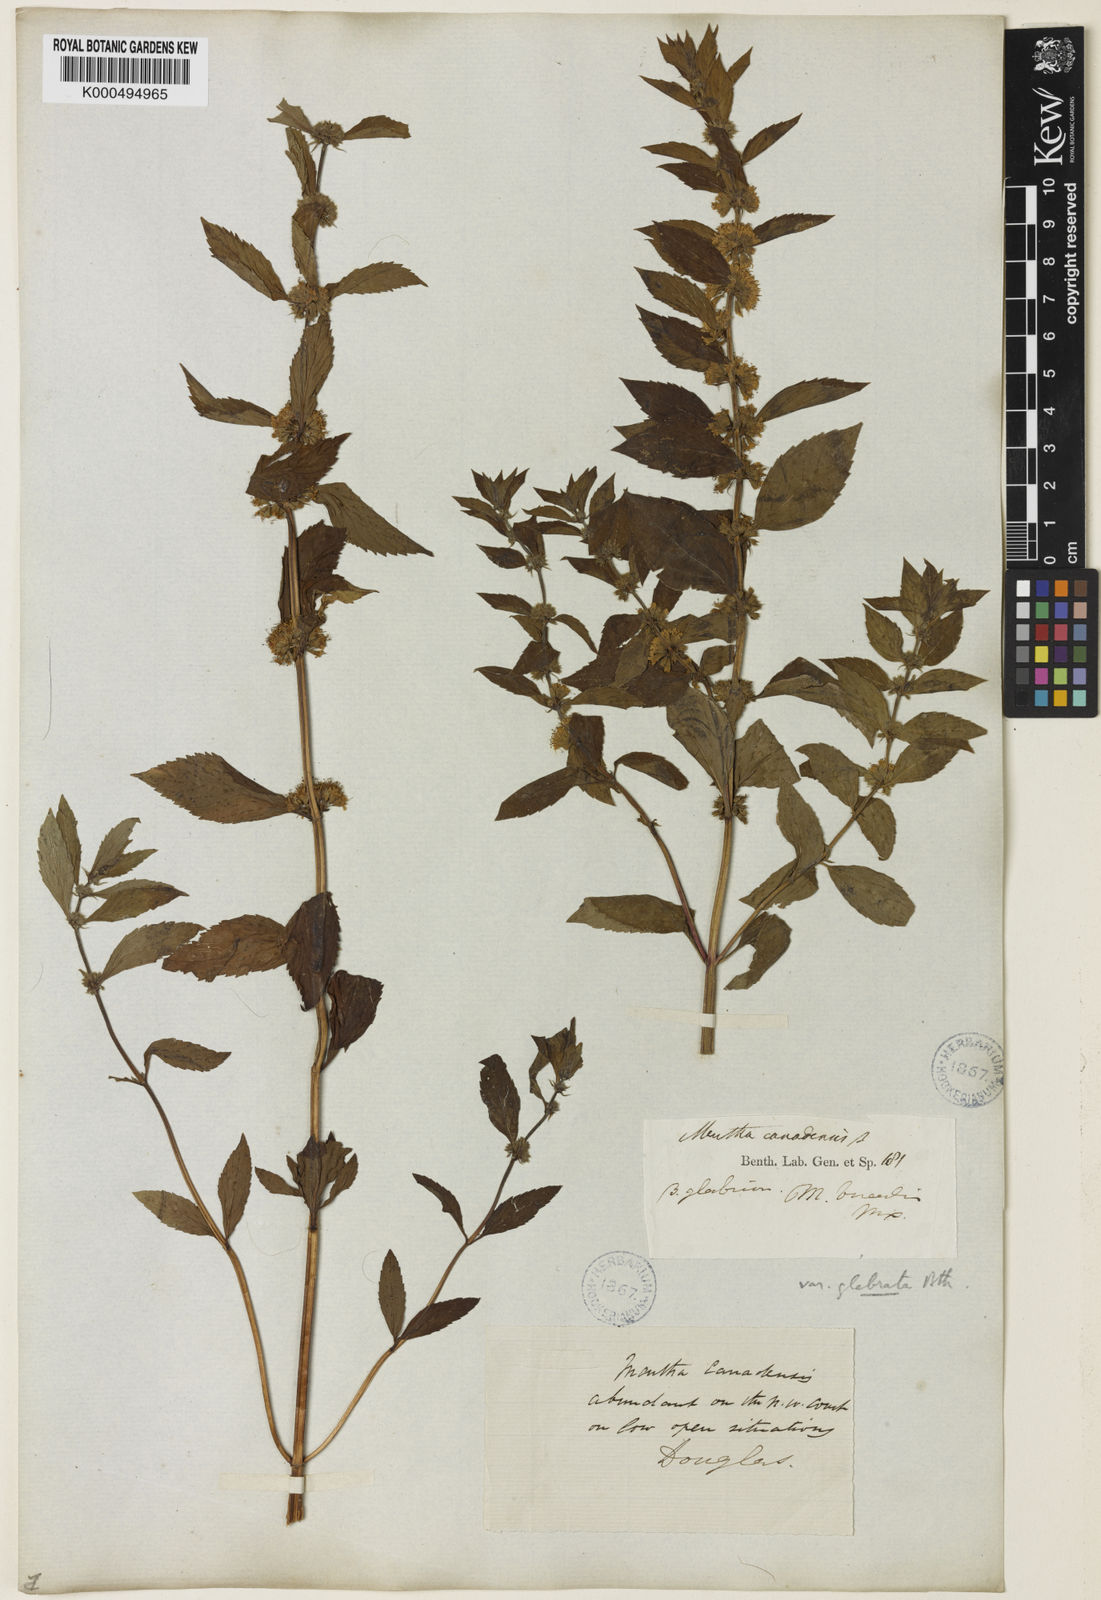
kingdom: Plantae
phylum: Tracheophyta
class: Magnoliopsida
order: Lamiales
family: Lamiaceae
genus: Mentha
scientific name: Mentha canadensis
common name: American corn mint
